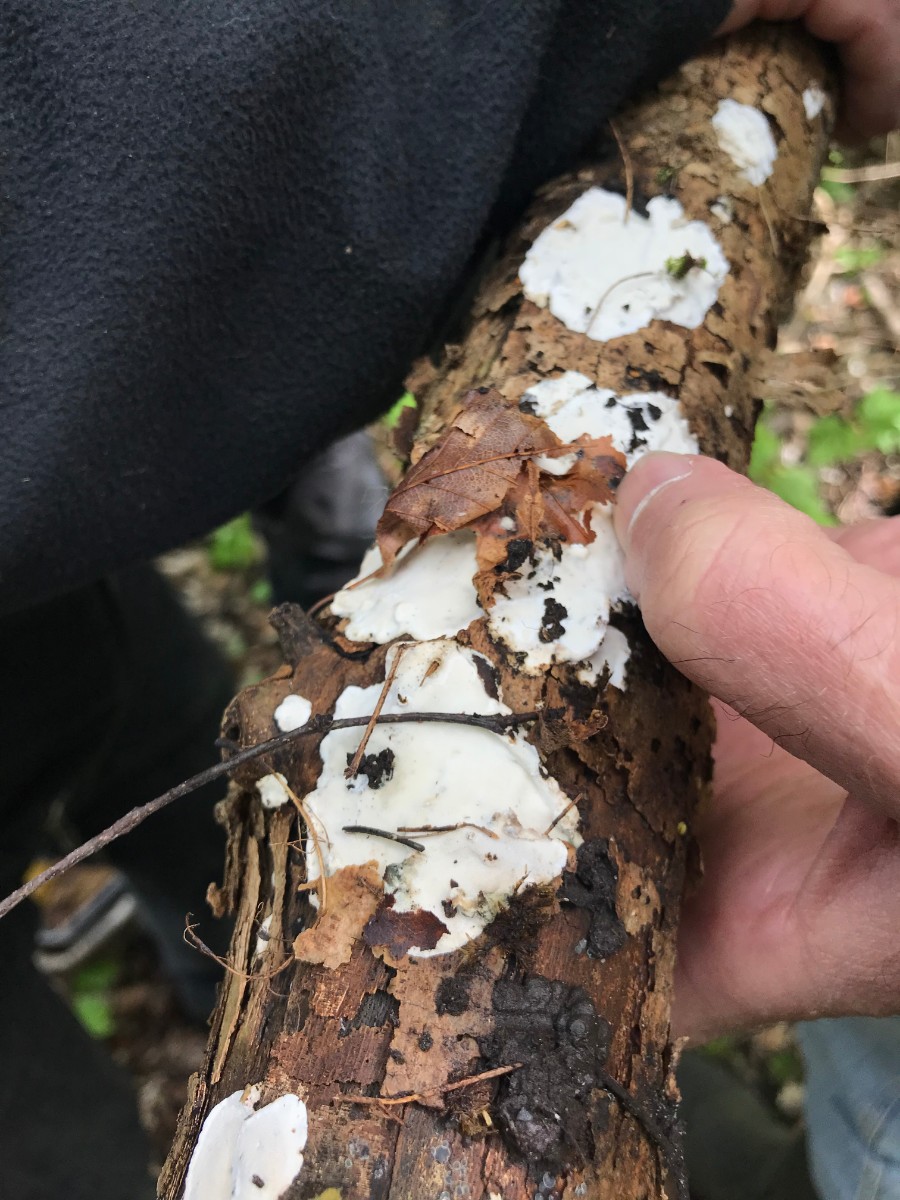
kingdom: Fungi
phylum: Basidiomycota
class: Agaricomycetes
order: Polyporales
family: Incrustoporiaceae
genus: Skeletocutis
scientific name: Skeletocutis nemoralis
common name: stor krystalporesvamp
